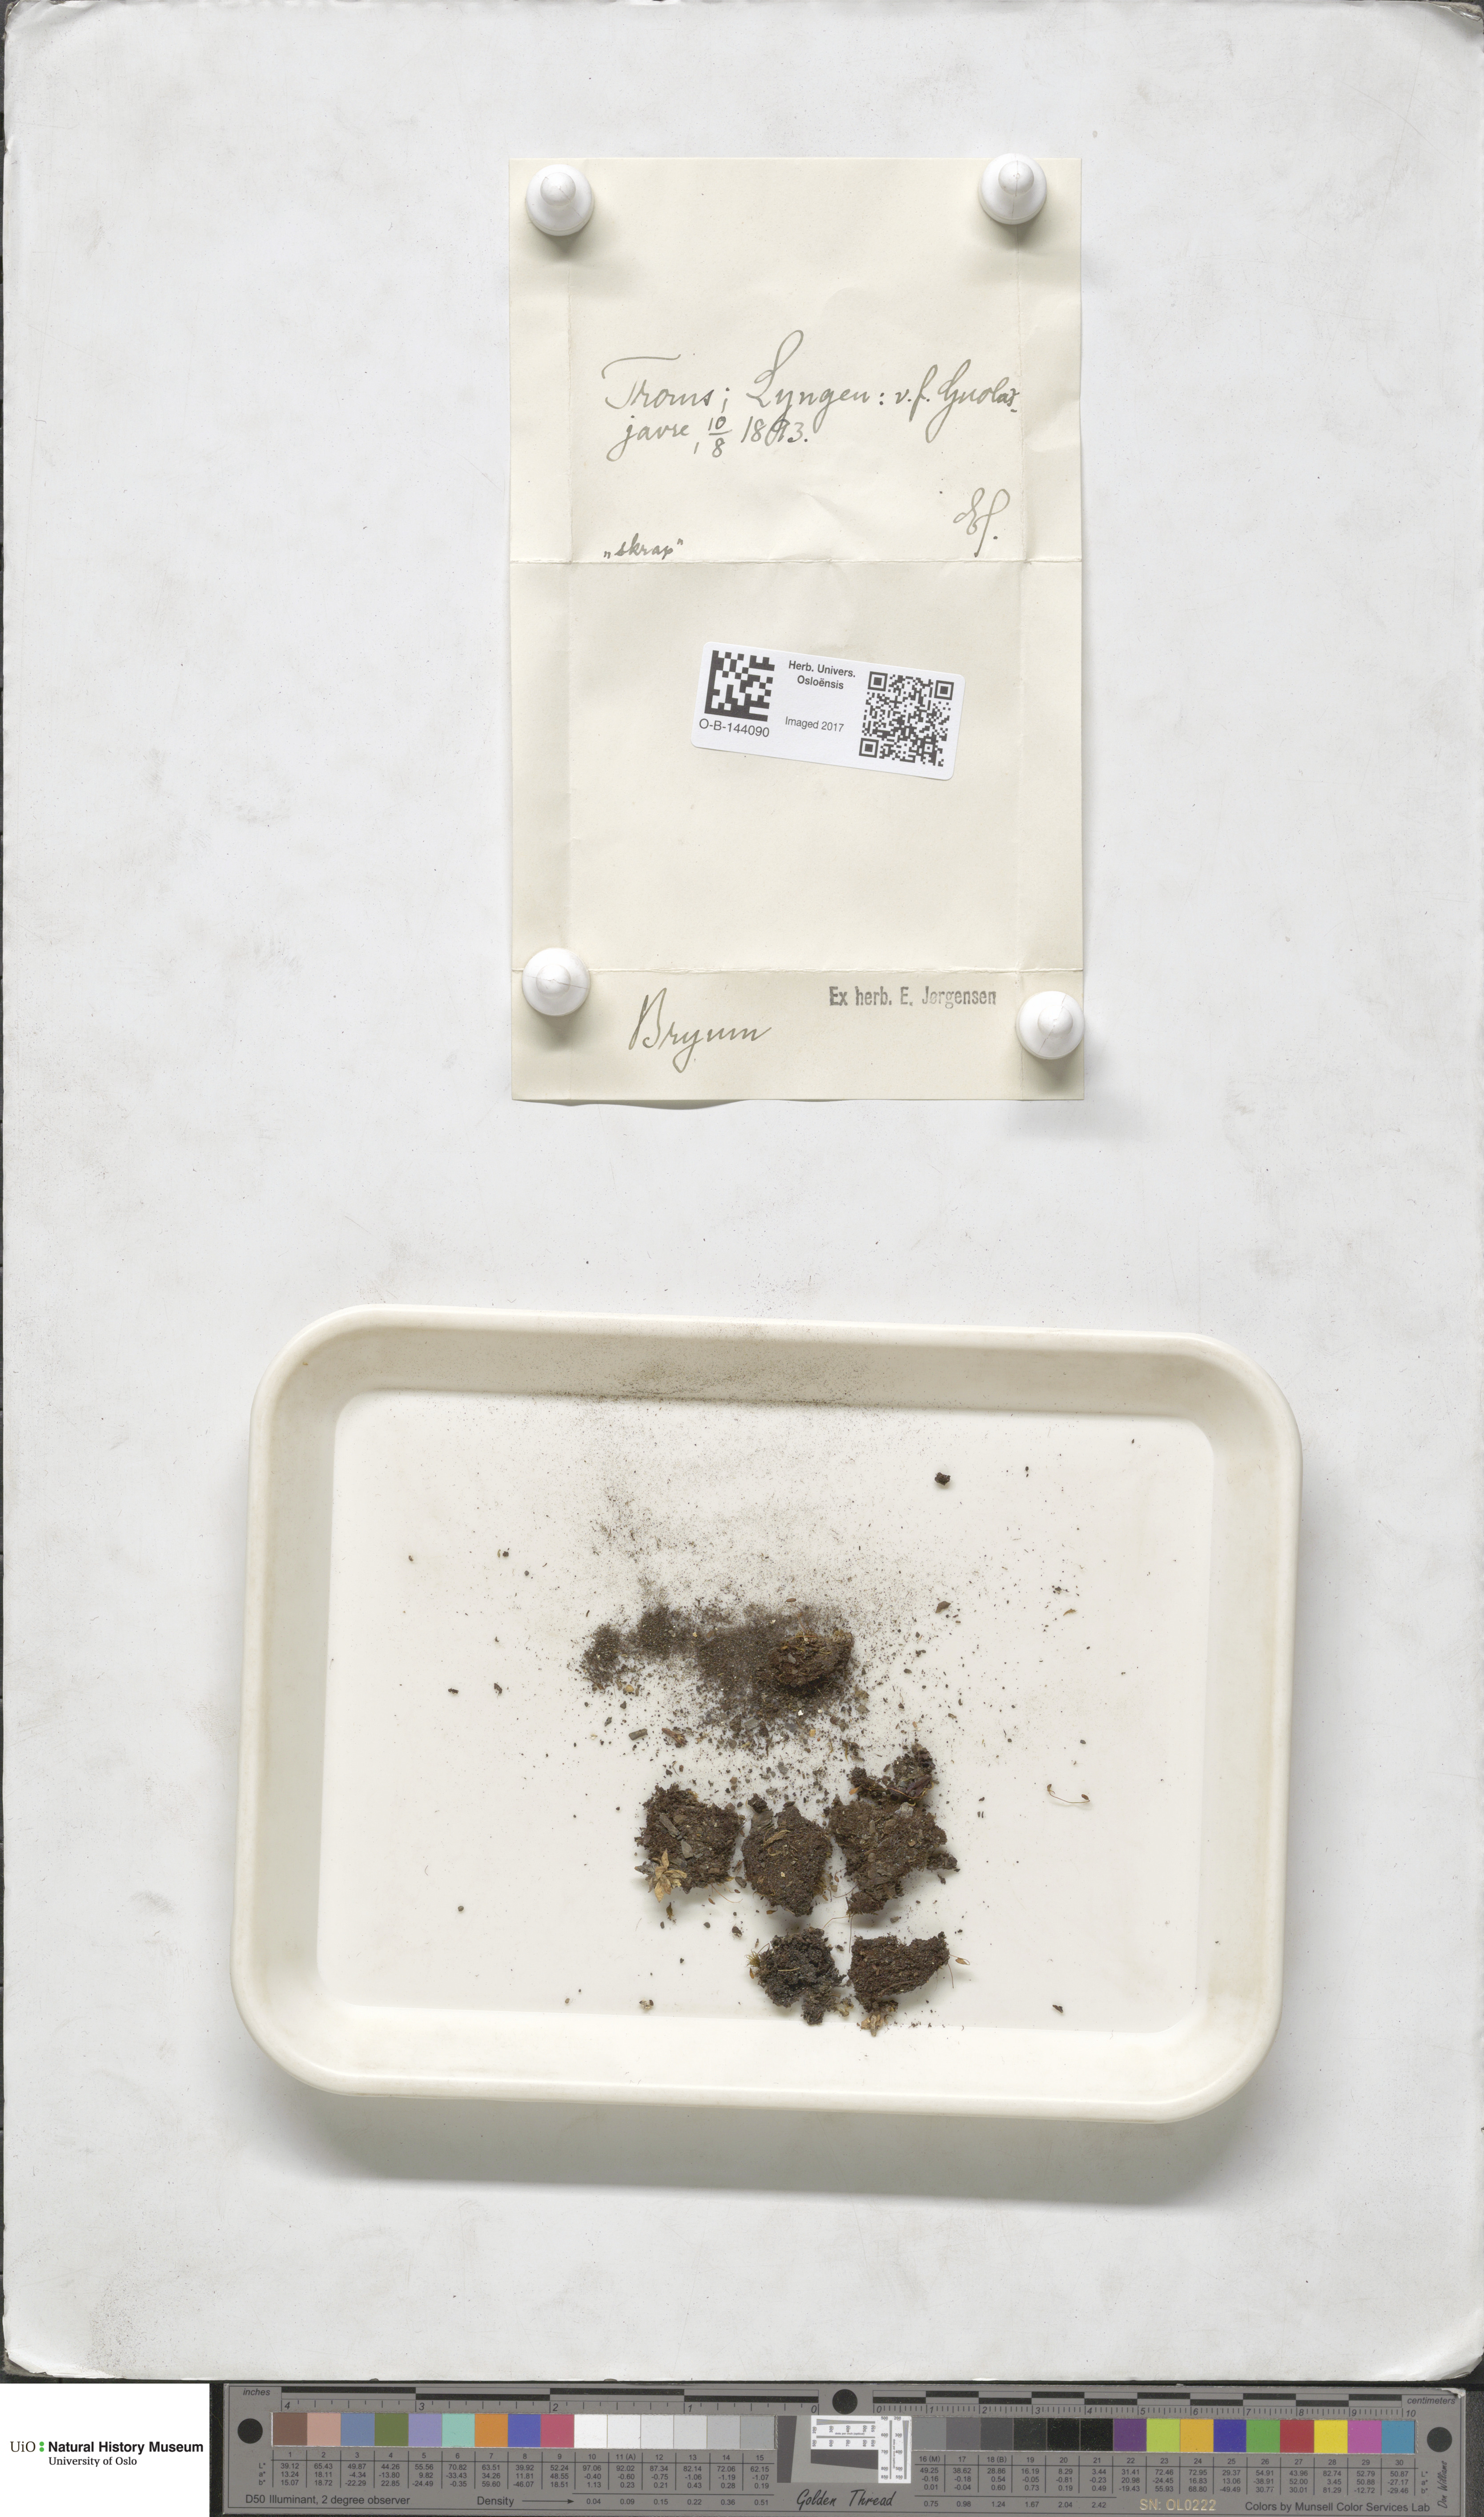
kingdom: Plantae
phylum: Bryophyta
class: Bryopsida
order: Bryales
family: Bryaceae
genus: Bryum
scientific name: Bryum
